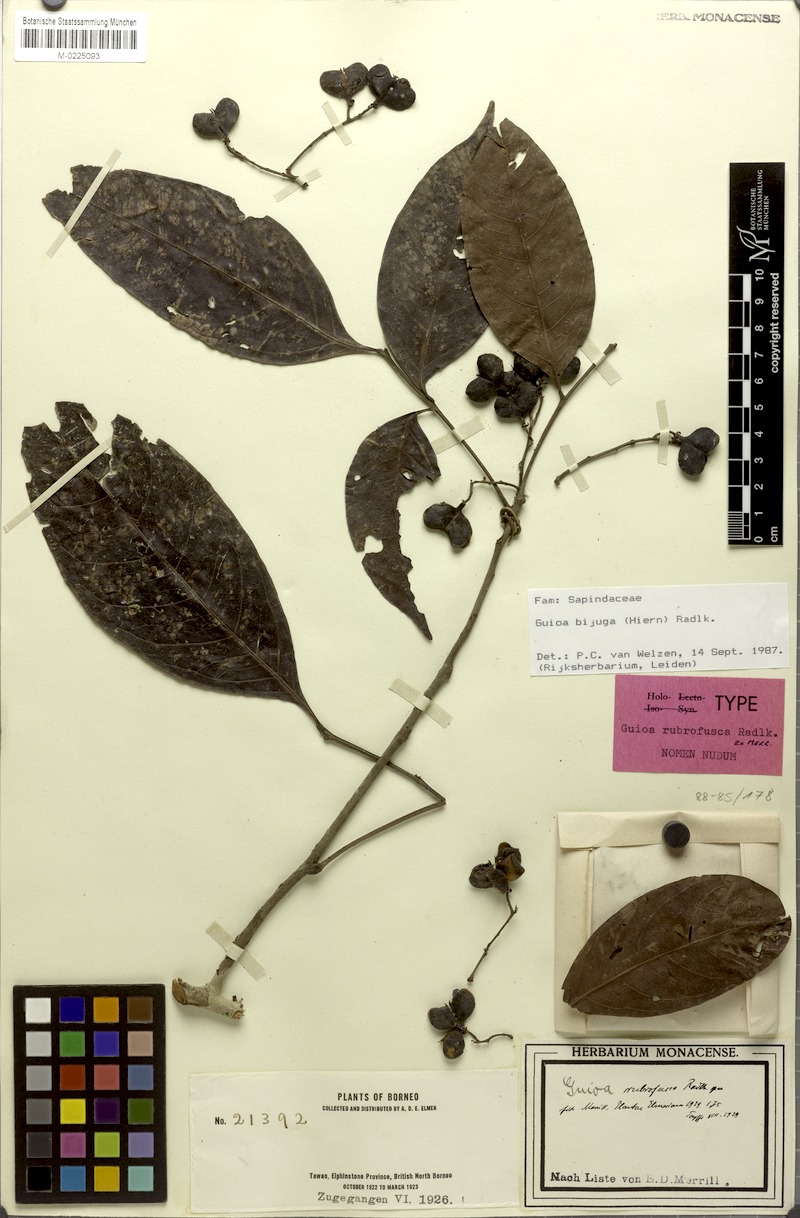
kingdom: Plantae
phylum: Tracheophyta
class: Magnoliopsida
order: Sapindales
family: Sapindaceae
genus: Guioa
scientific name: Guioa bijuga
